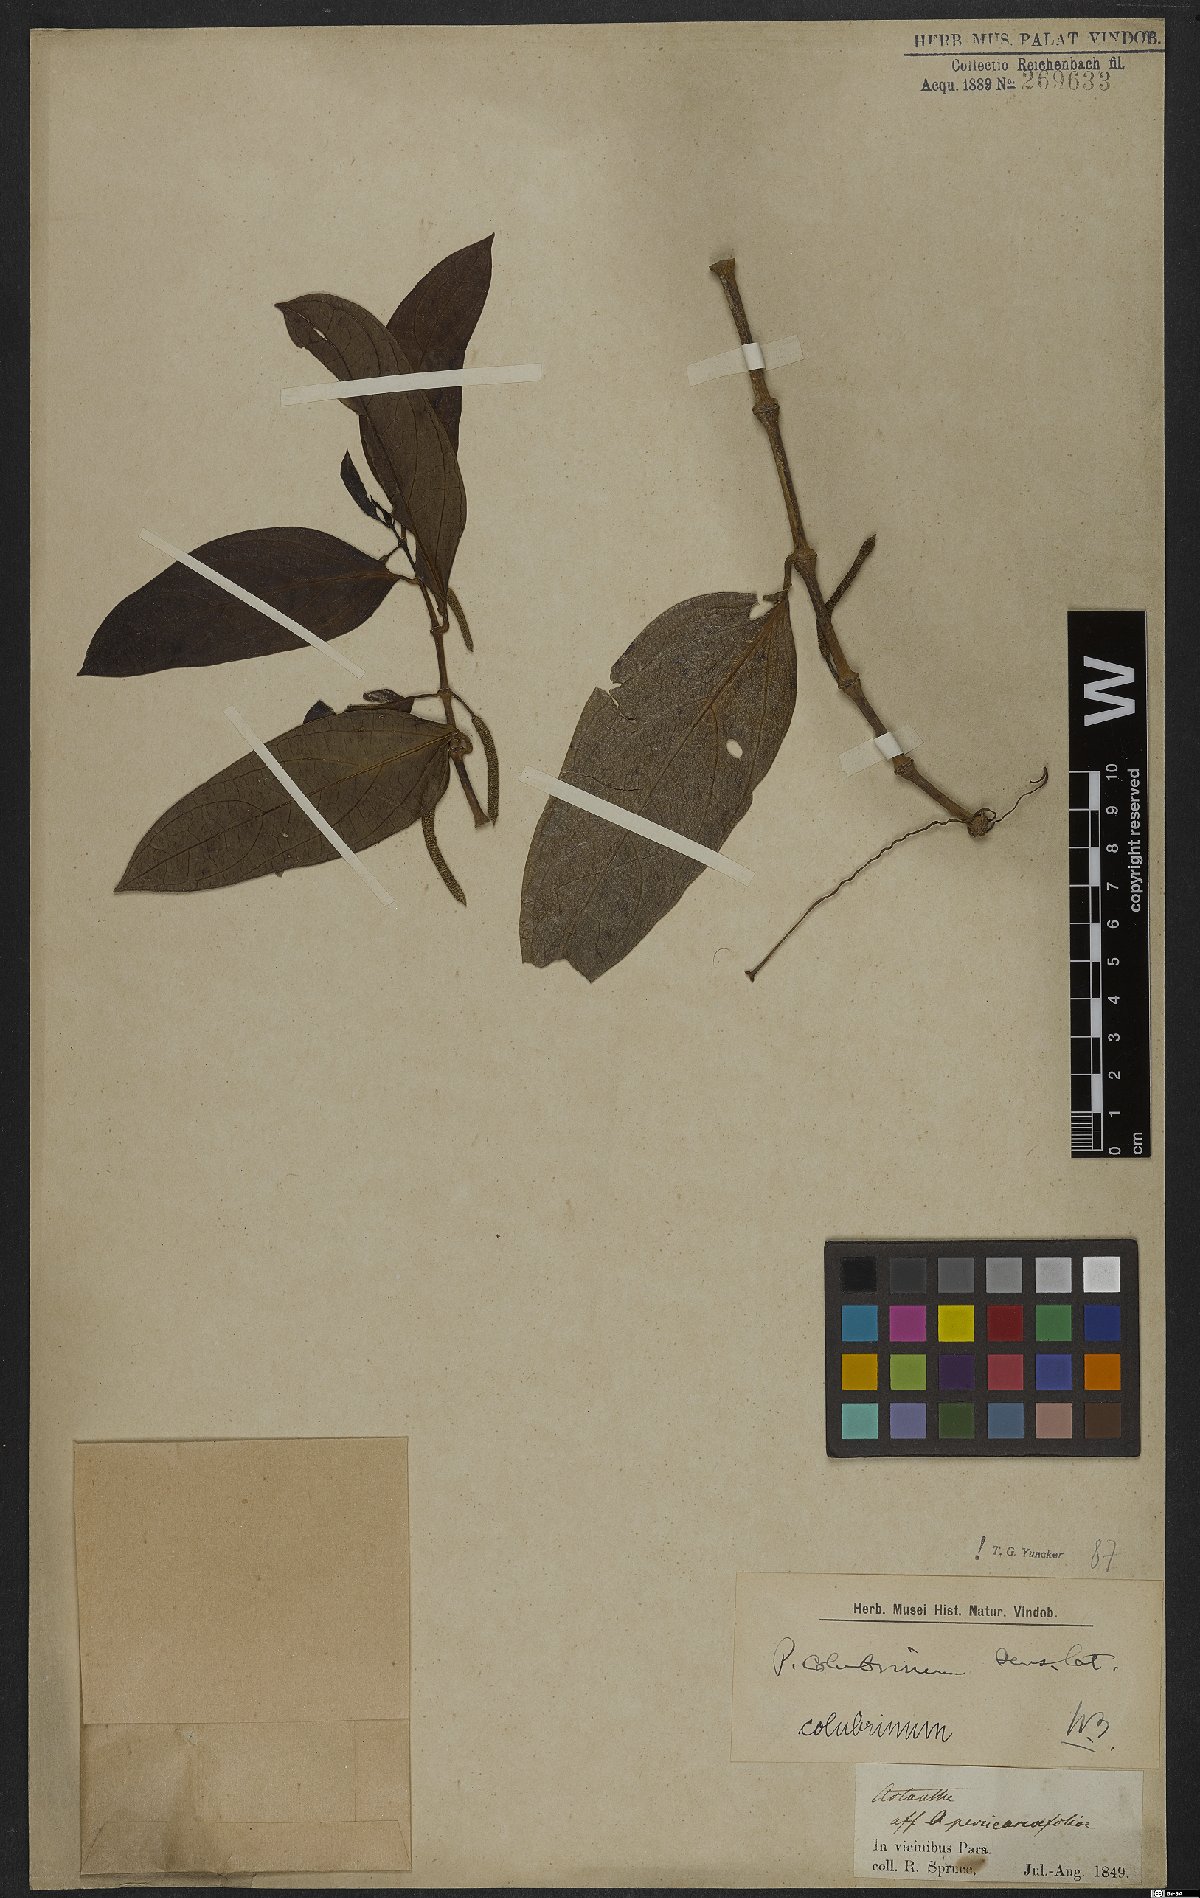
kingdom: Plantae
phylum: Tracheophyta
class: Magnoliopsida
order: Piperales
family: Piperaceae
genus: Piper
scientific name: Piper colubrinum
